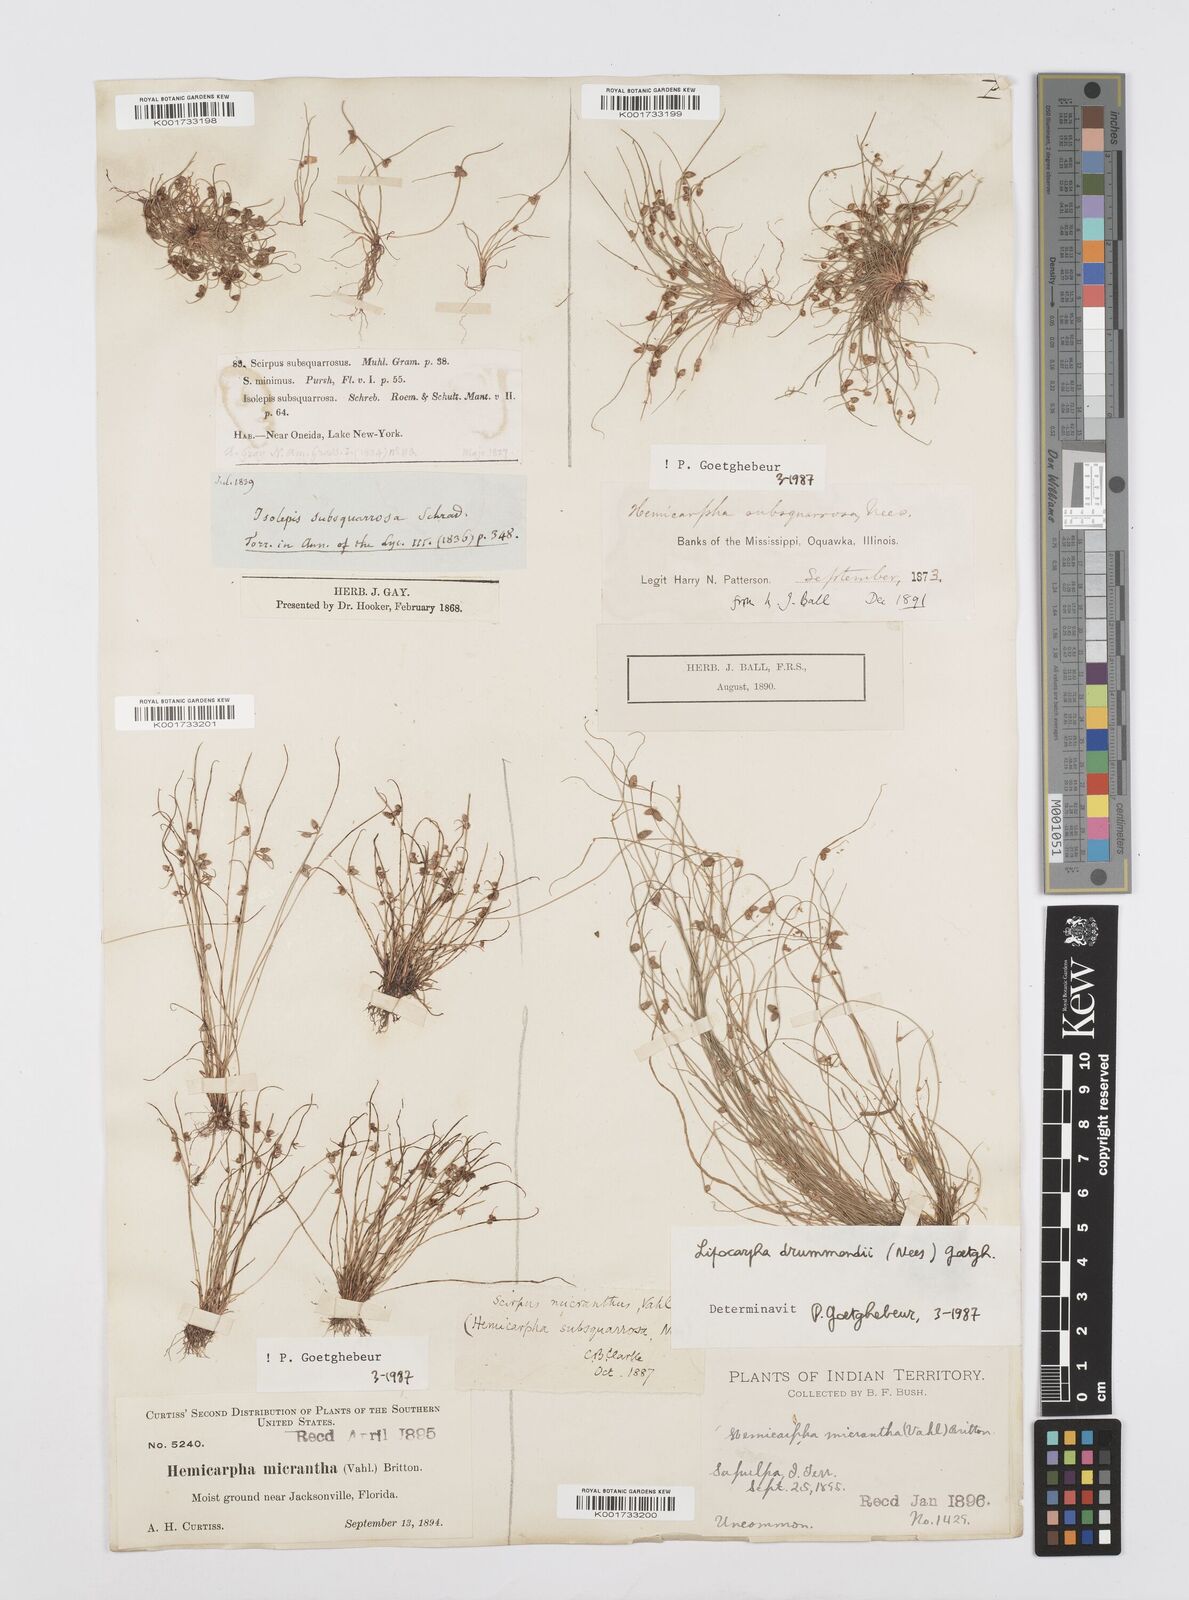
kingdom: Plantae
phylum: Tracheophyta
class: Liliopsida
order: Poales
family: Cyperaceae
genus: Cyperus
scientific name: Cyperus dentatus
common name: Dentate umbrella sedge
